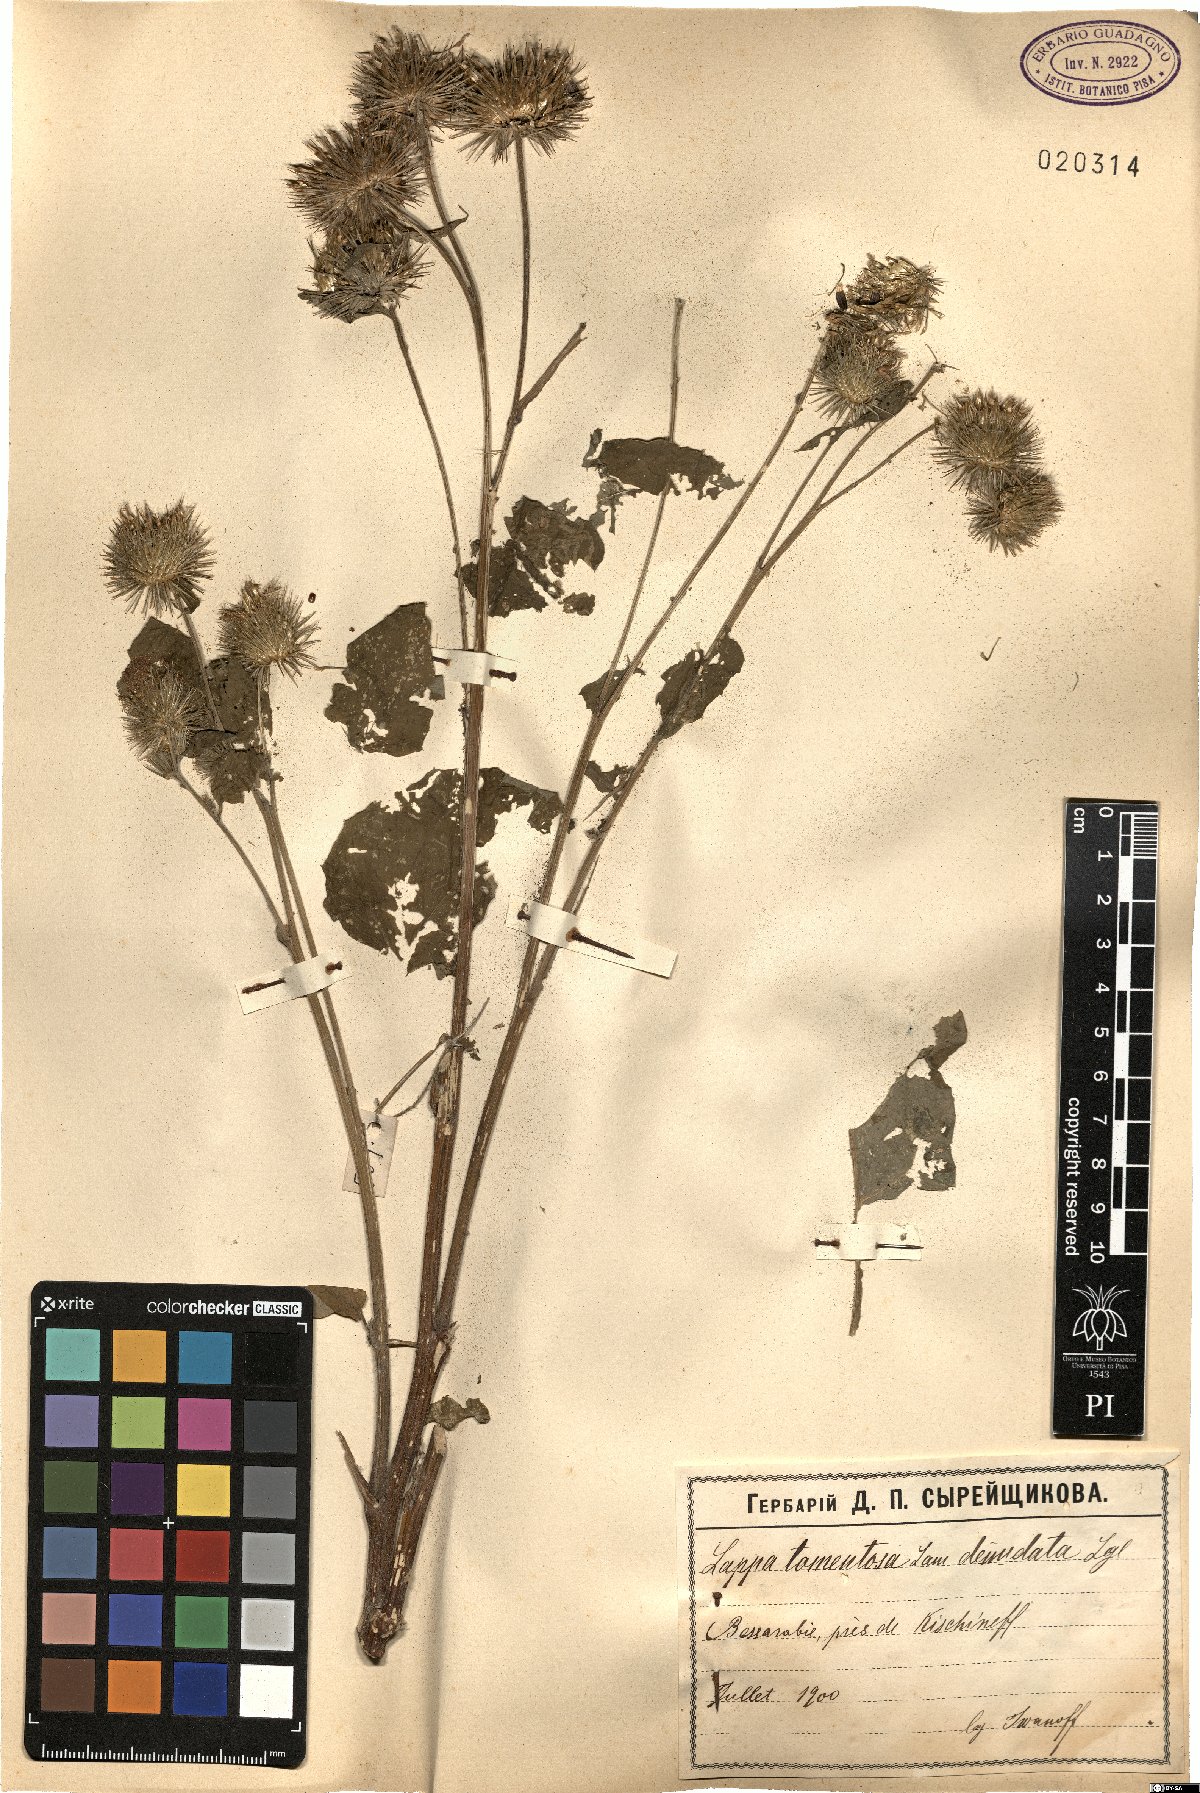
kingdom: Plantae
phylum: Tracheophyta
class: Magnoliopsida
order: Asterales
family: Asteraceae
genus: Arctium
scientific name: Arctium tomentosum
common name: Woolly burdock
